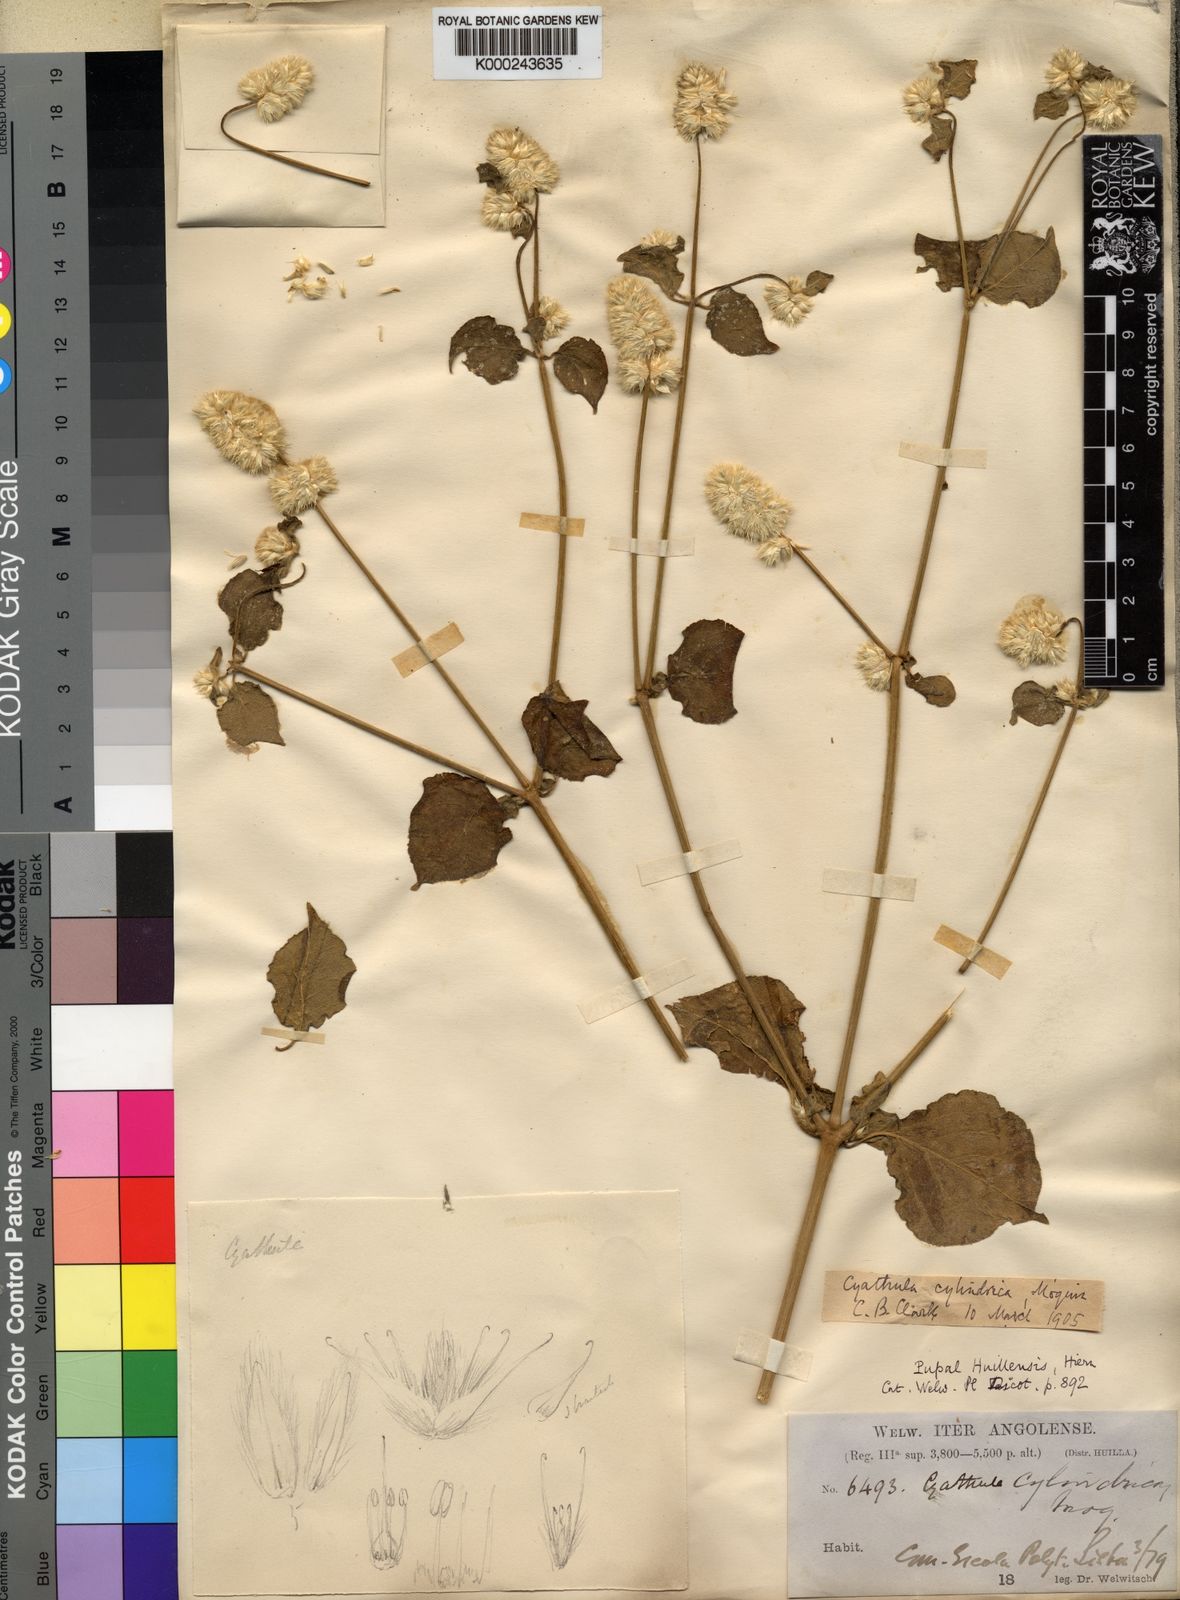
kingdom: Plantae
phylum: Tracheophyta
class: Magnoliopsida
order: Caryophyllales
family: Amaranthaceae
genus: Cyathula
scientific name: Cyathula cylindrica
